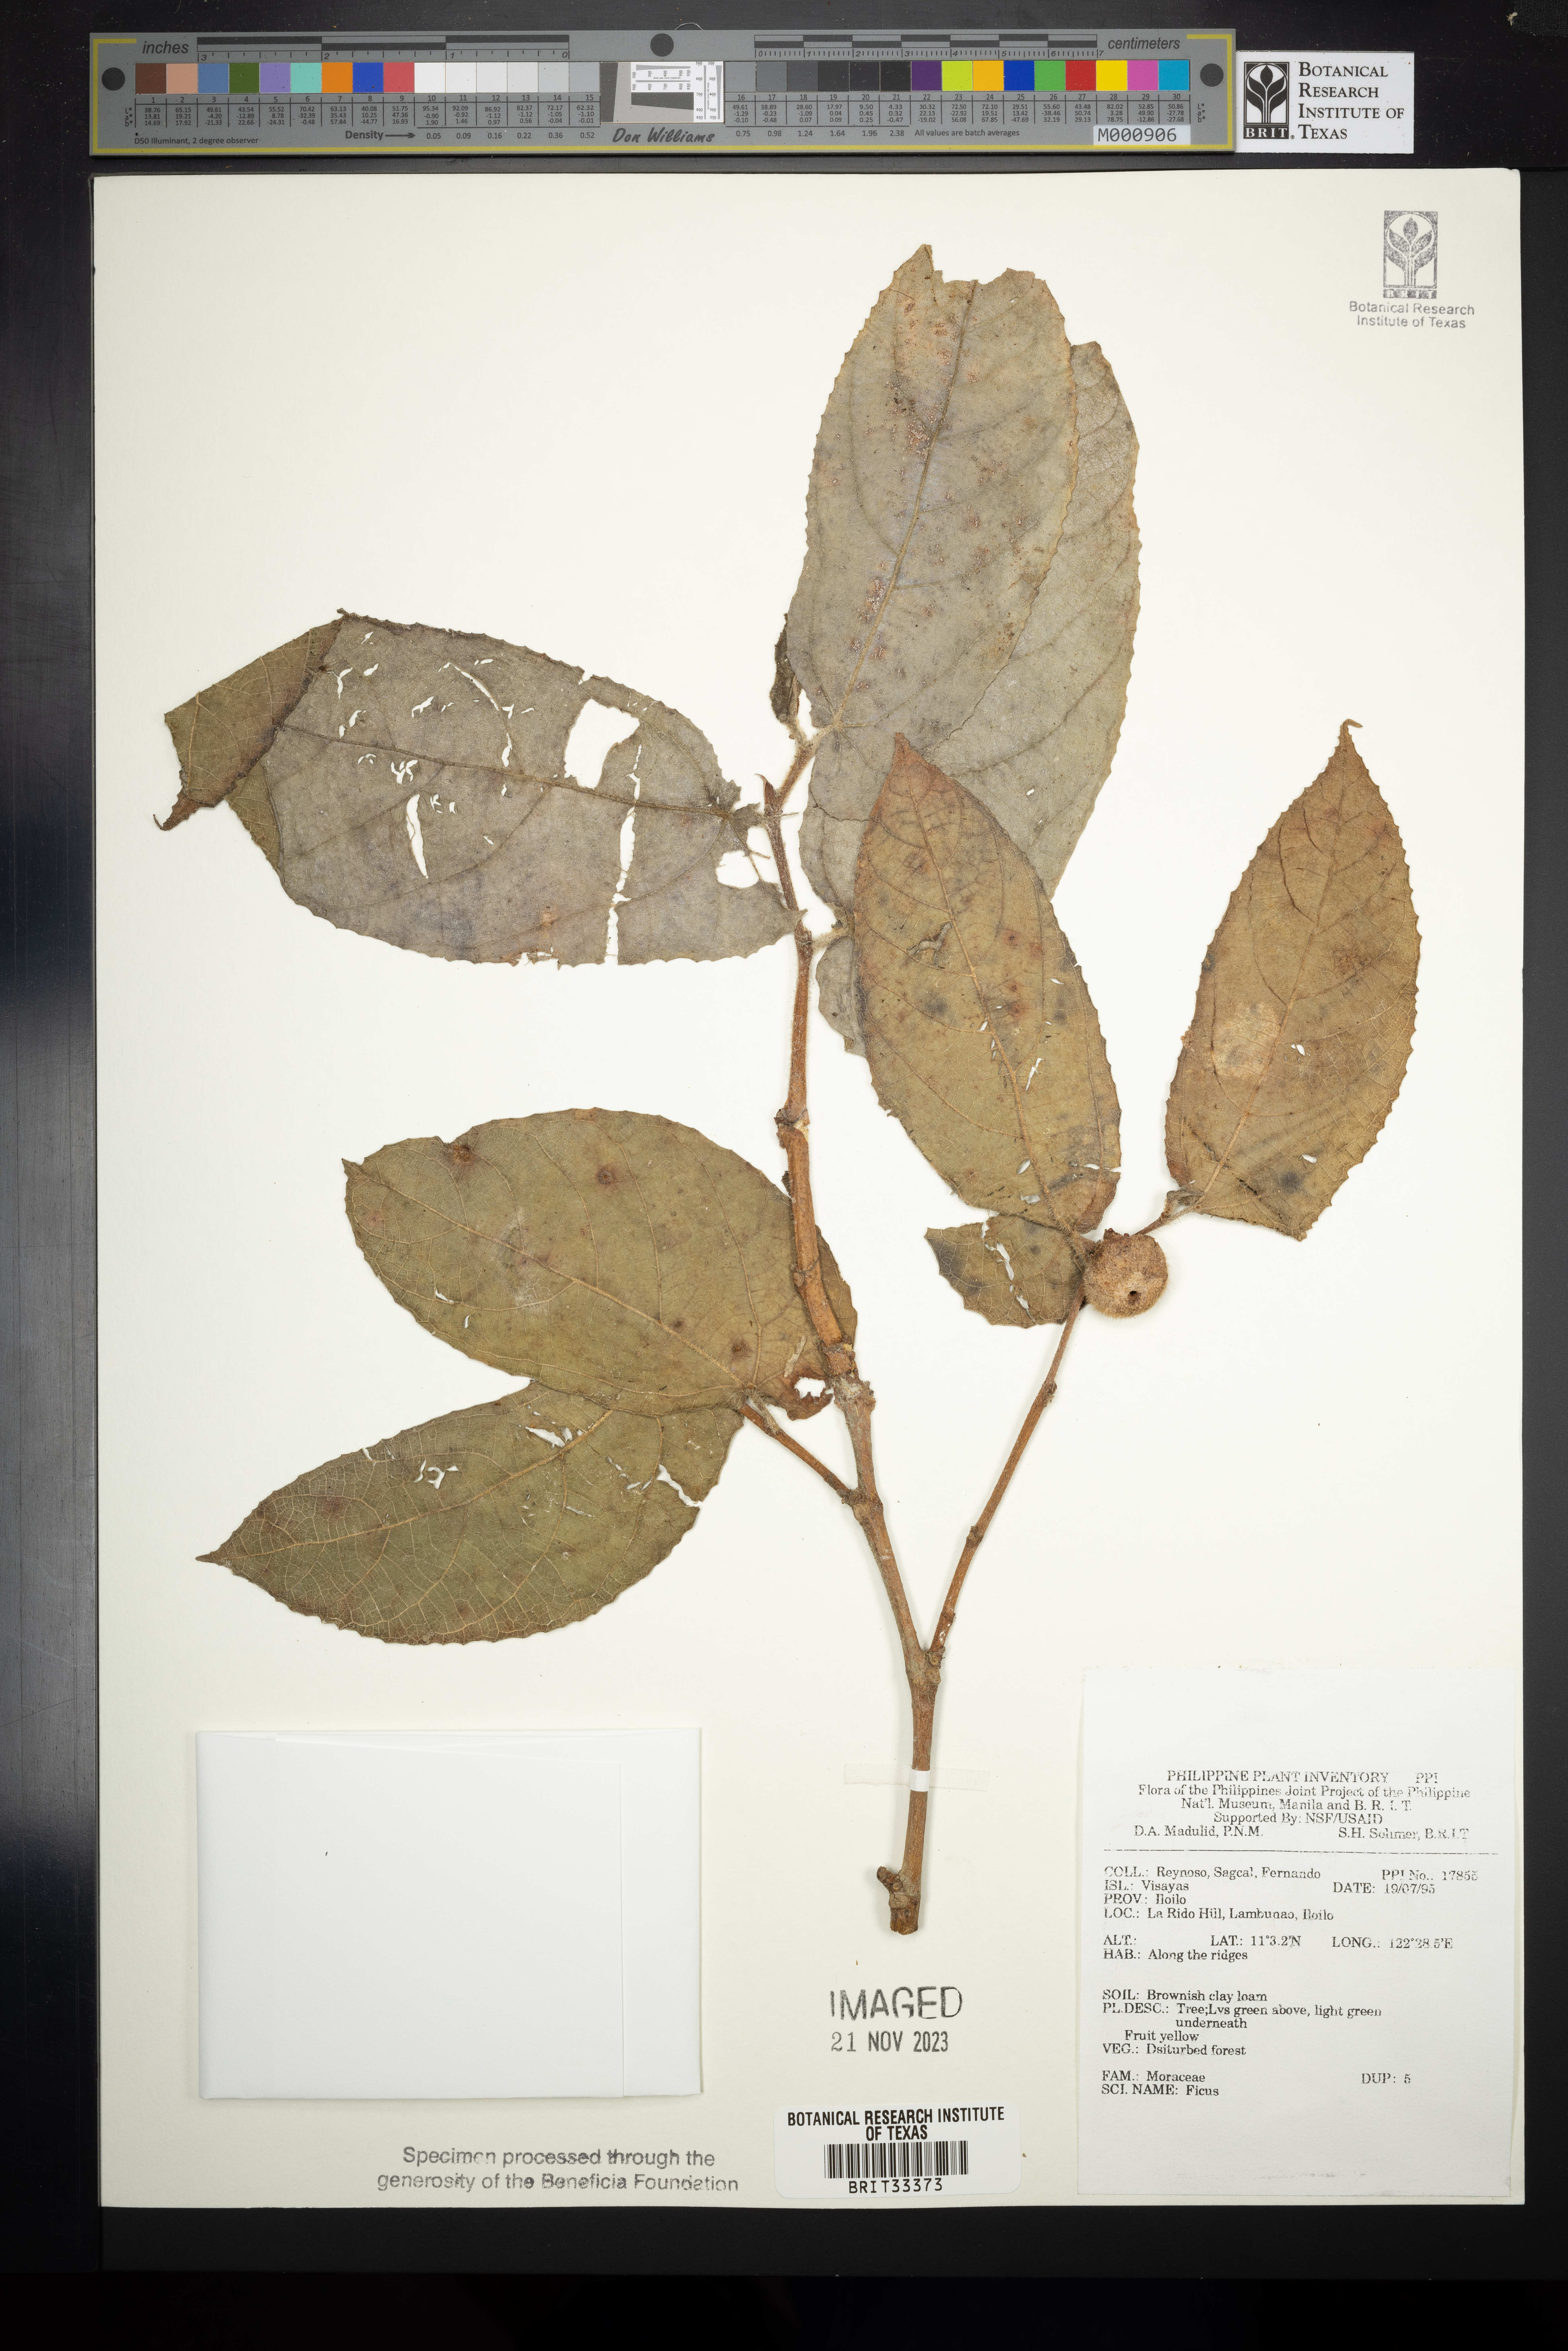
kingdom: Plantae
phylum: Tracheophyta
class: Magnoliopsida
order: Rosales
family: Moraceae
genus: Ficus
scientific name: Ficus
